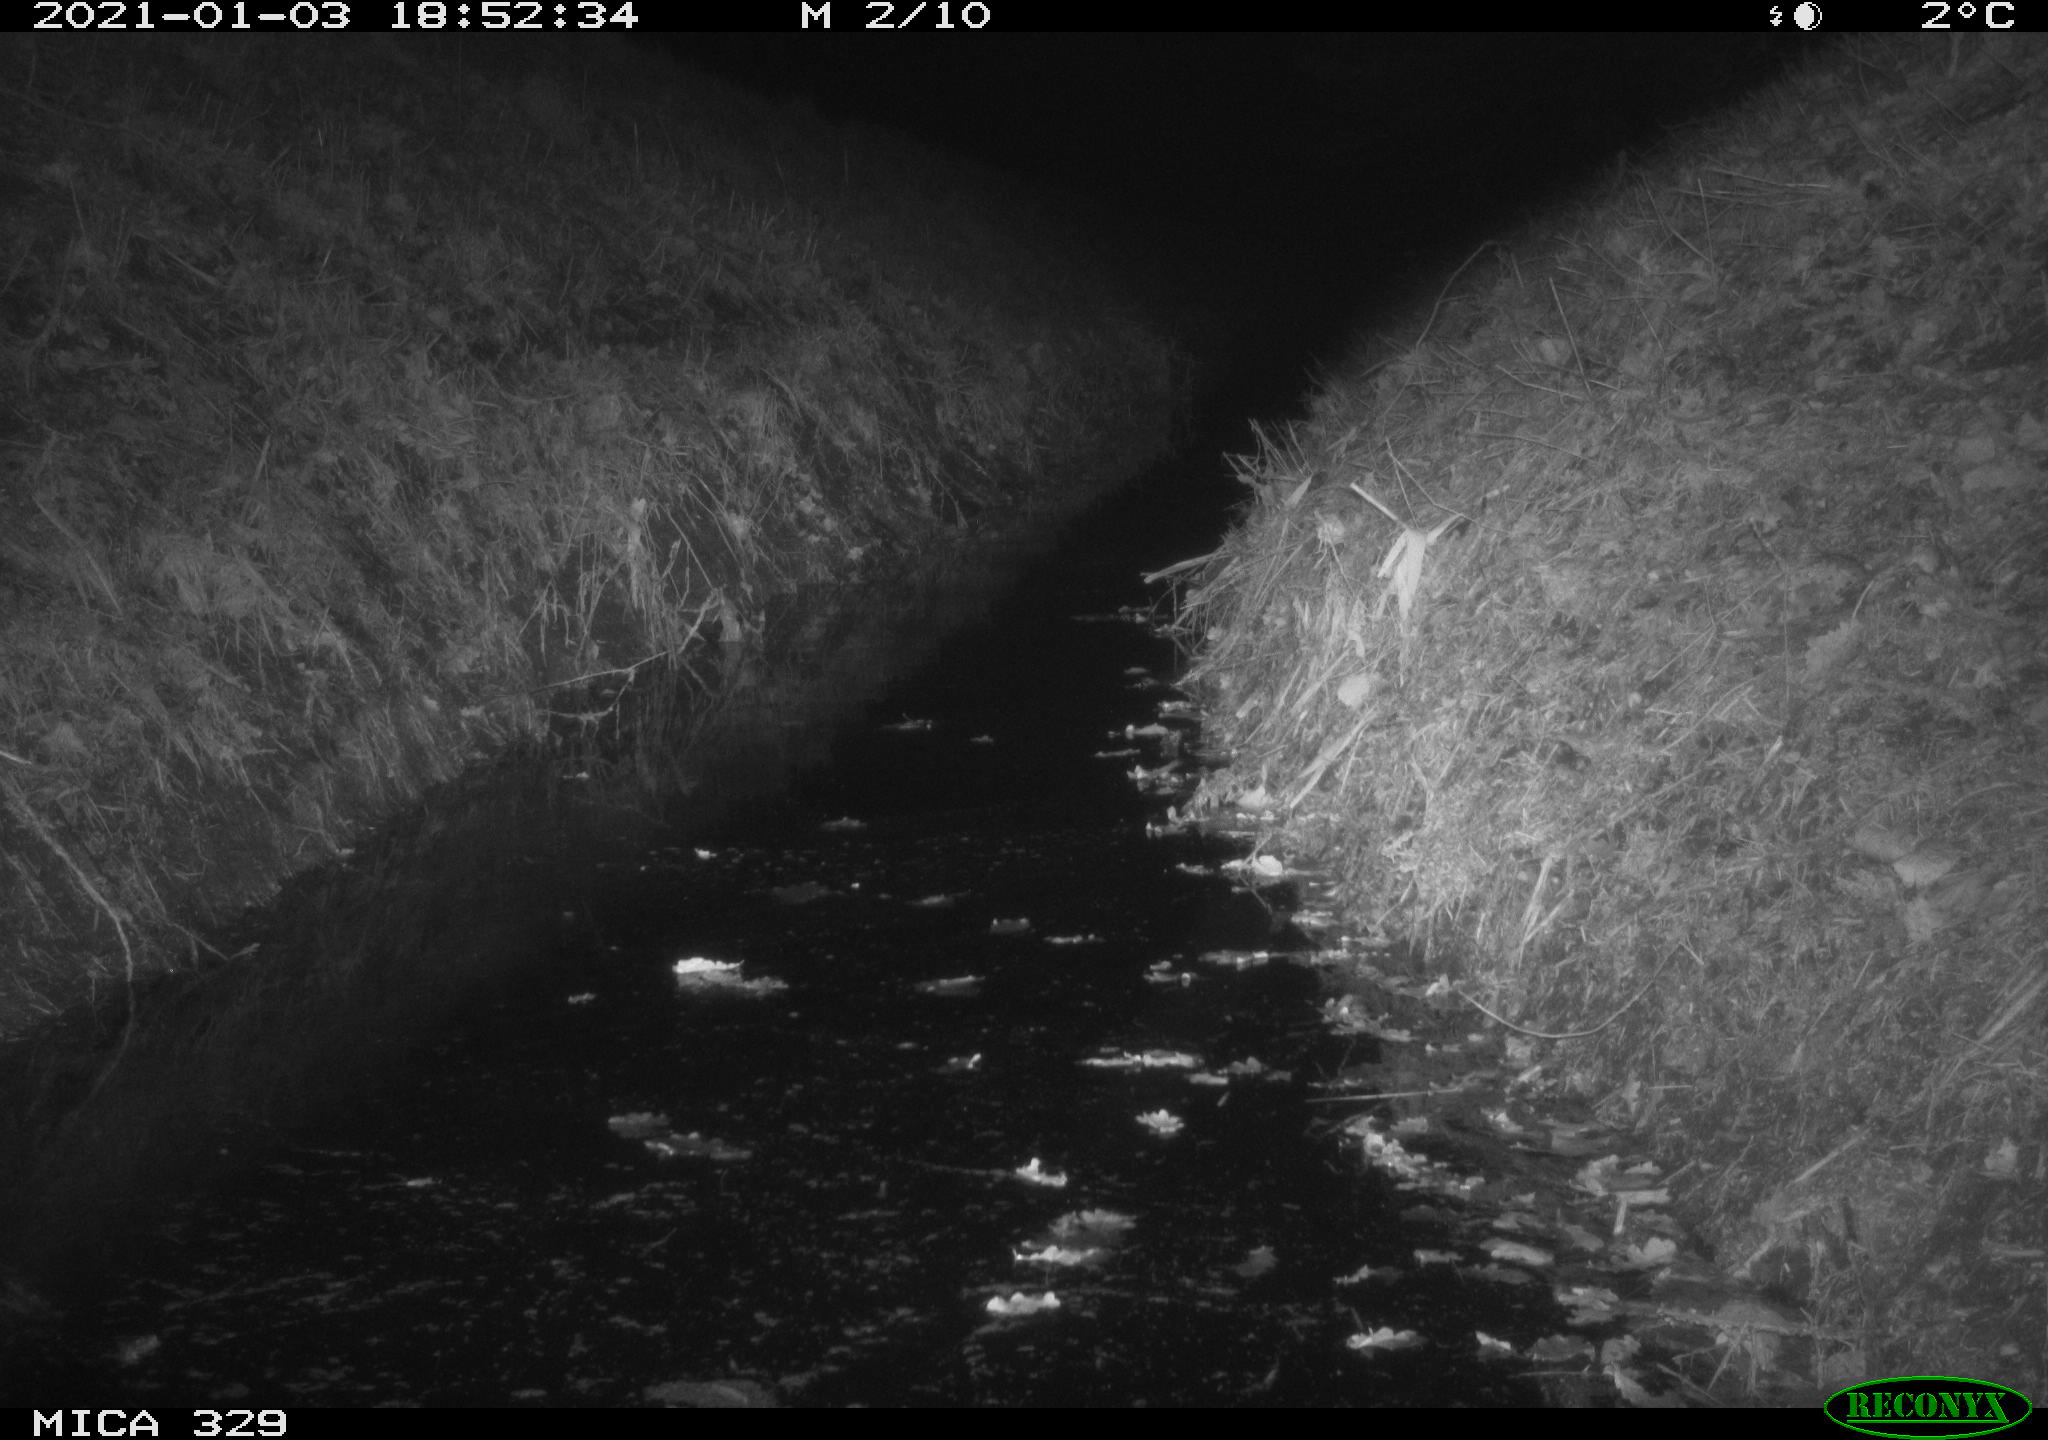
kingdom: Animalia
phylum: Chordata
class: Mammalia
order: Rodentia
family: Muridae
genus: Rattus
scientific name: Rattus norvegicus
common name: Brown rat
